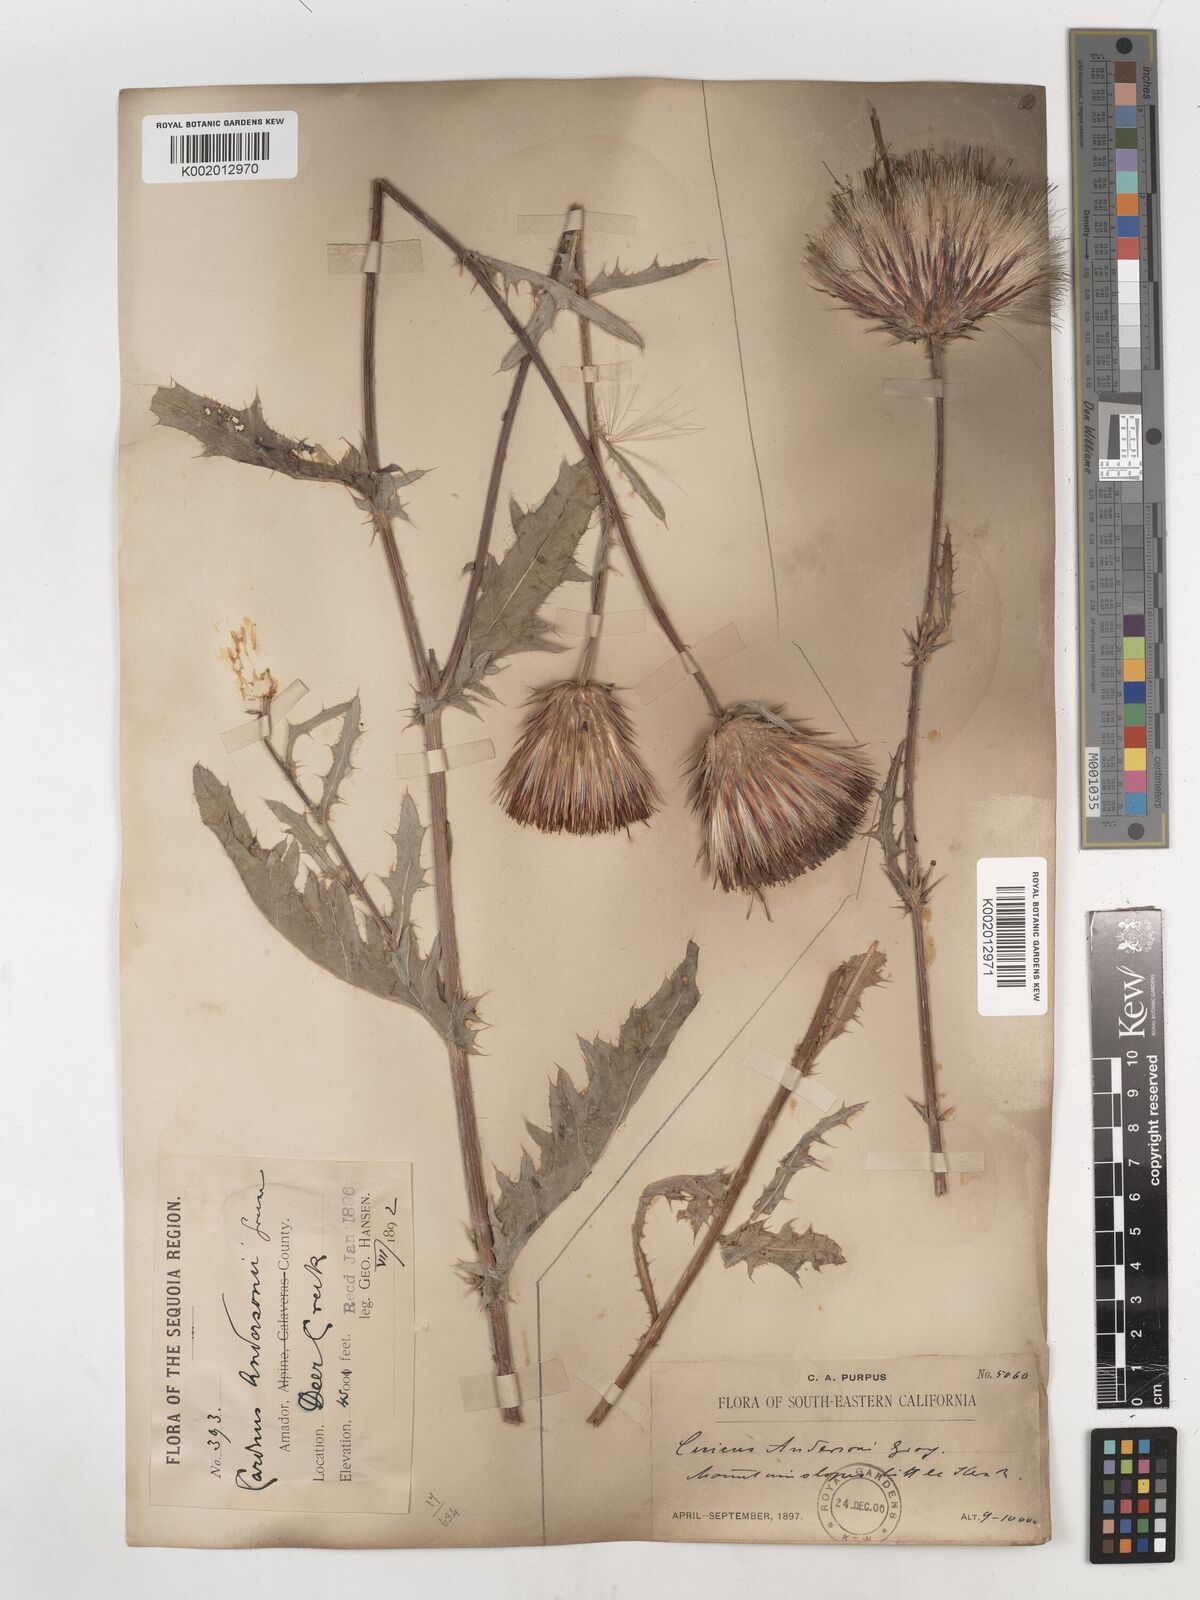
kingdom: Plantae
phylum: Tracheophyta
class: Magnoliopsida
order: Asterales
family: Asteraceae
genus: Cirsium
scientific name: Cirsium
